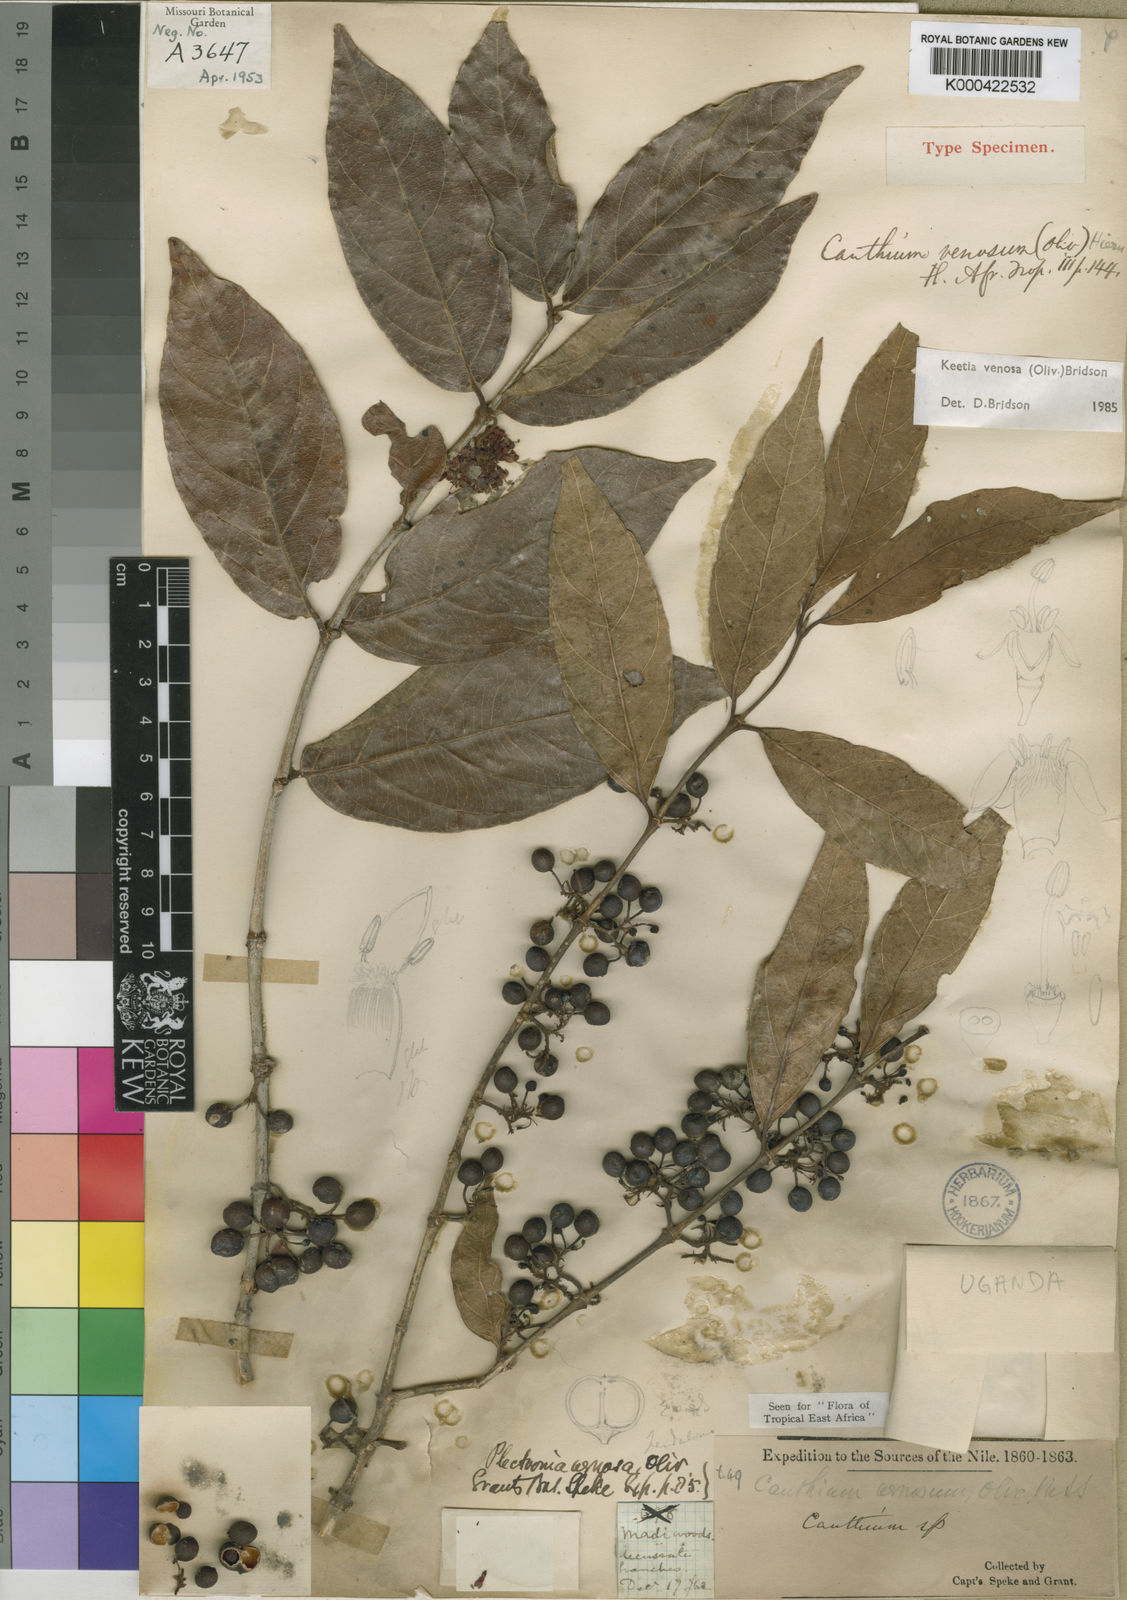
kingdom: Plantae
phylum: Tracheophyta
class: Magnoliopsida
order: Gentianales
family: Rubiaceae
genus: Keetia
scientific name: Keetia venosa
